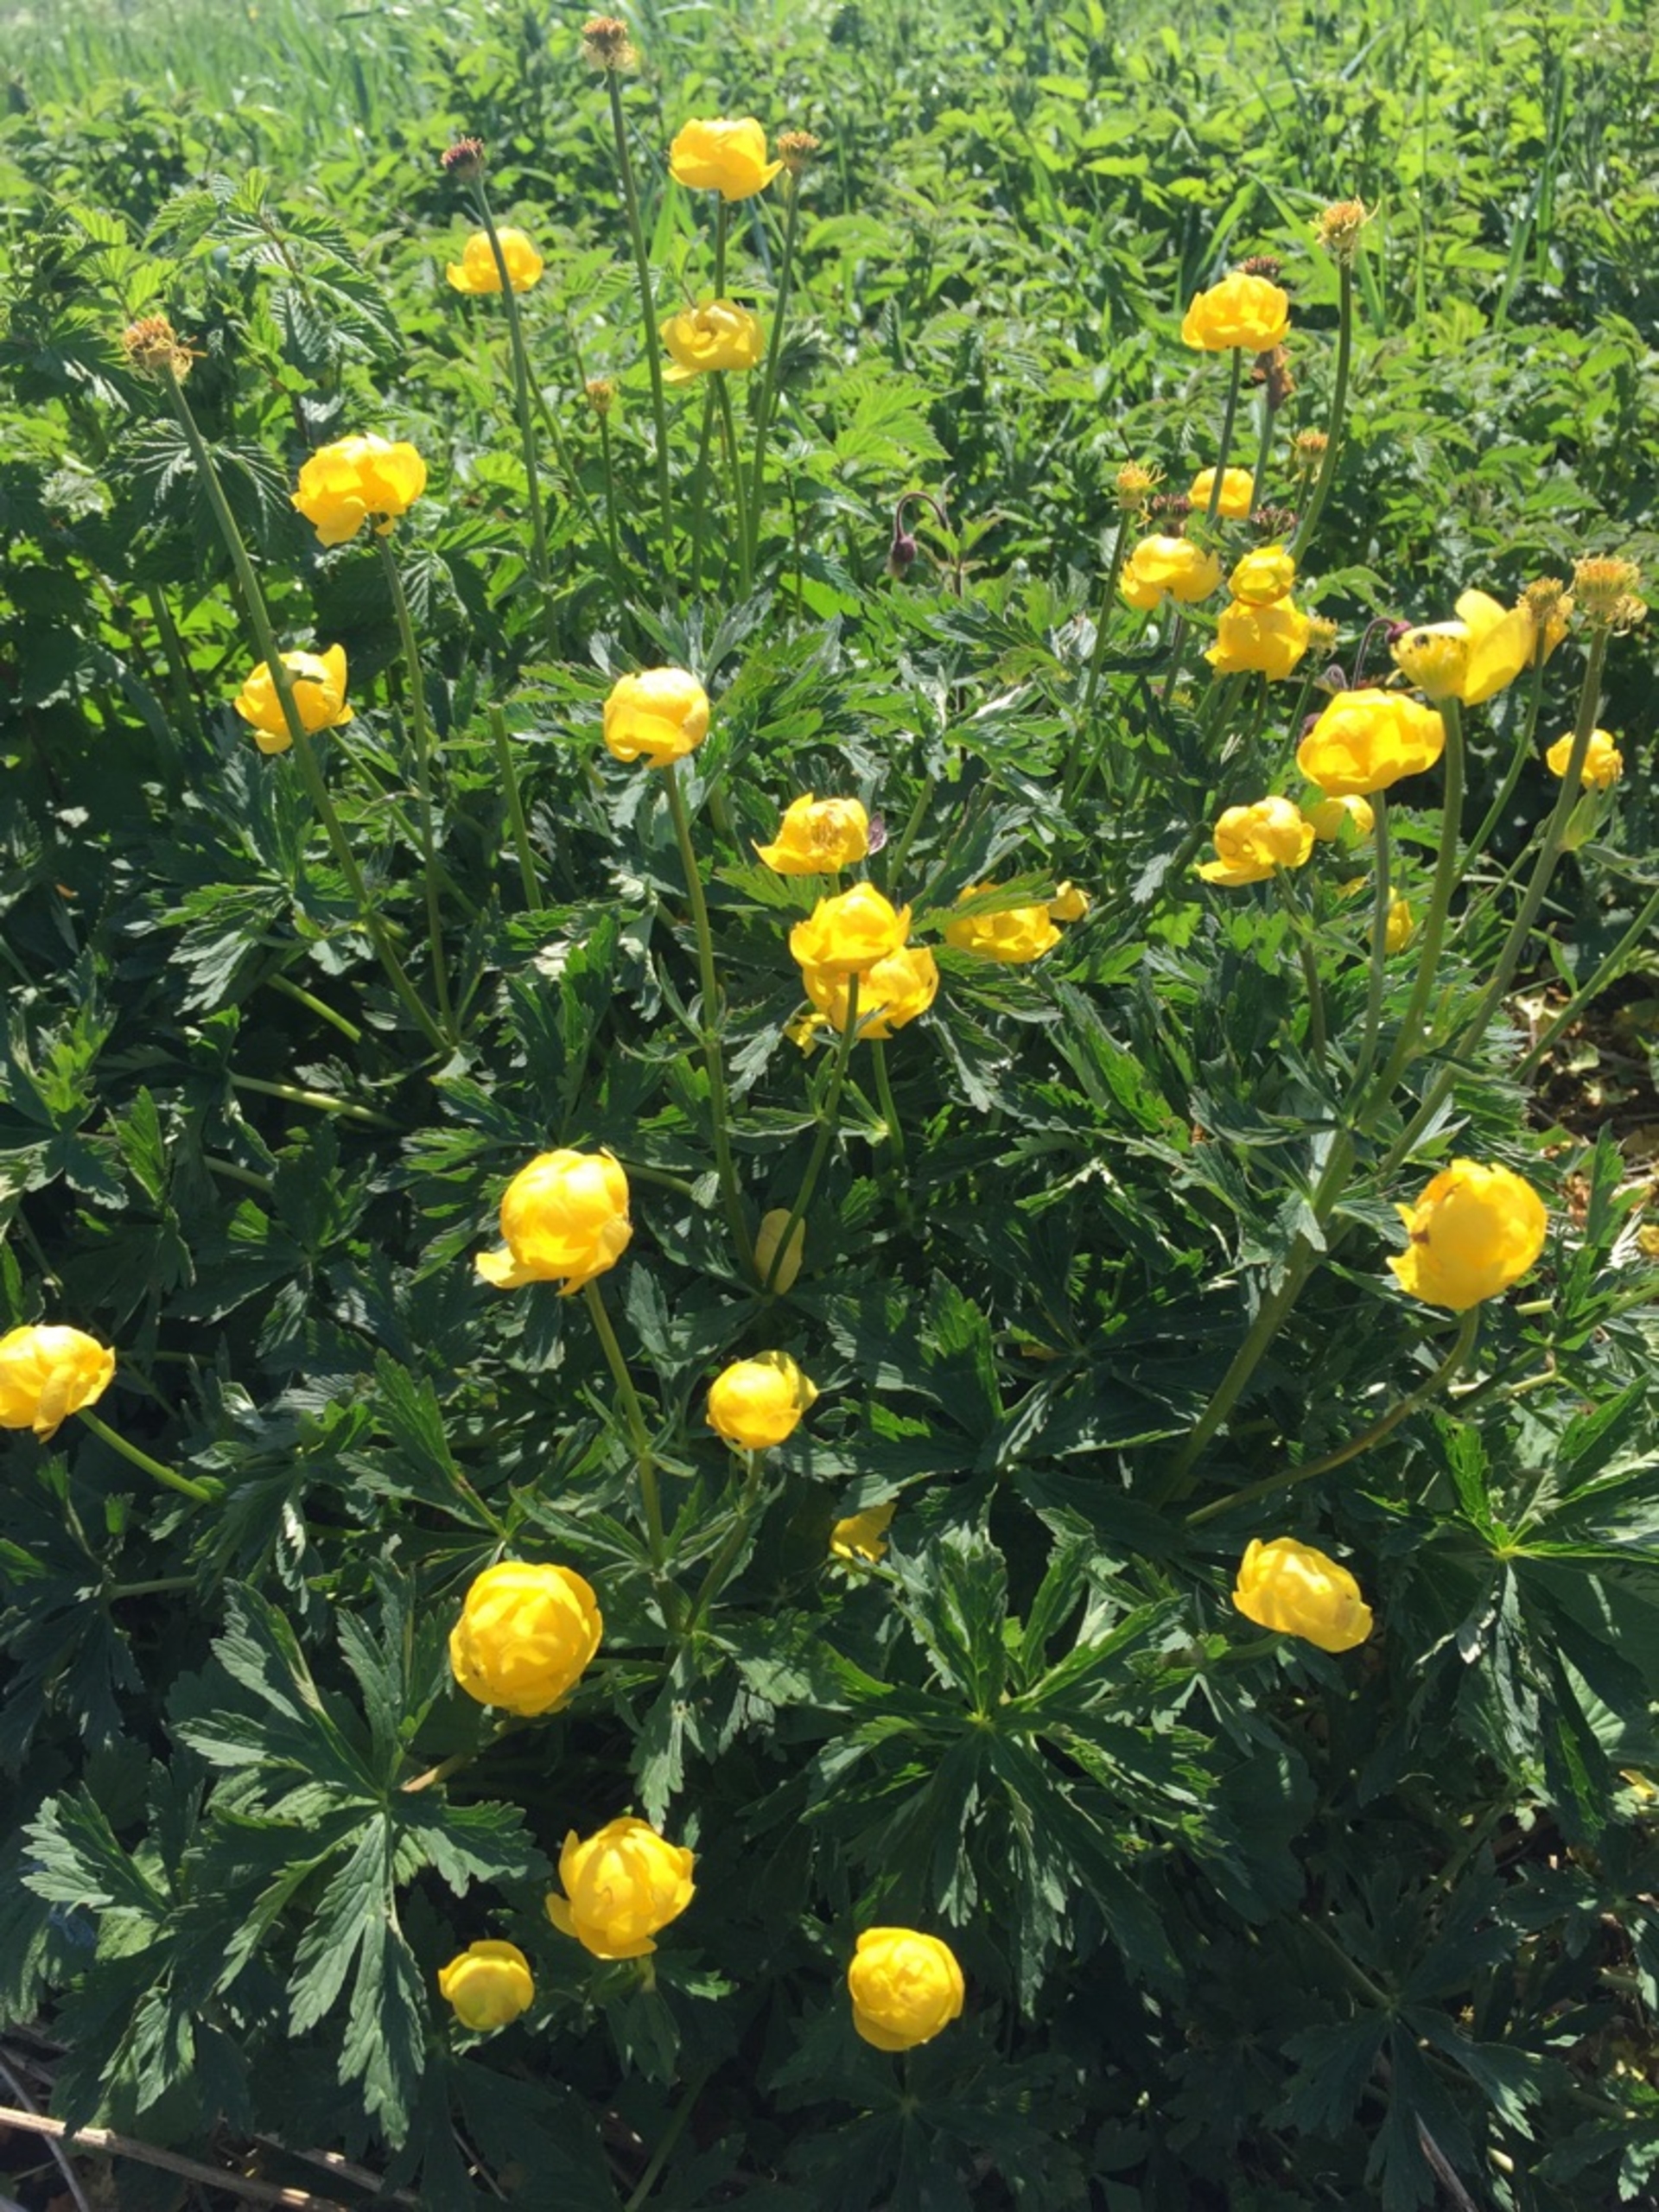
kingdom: Plantae
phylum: Tracheophyta
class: Magnoliopsida
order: Ranunculales
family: Ranunculaceae
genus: Trollius
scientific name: Trollius europaeus
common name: Engblomme
